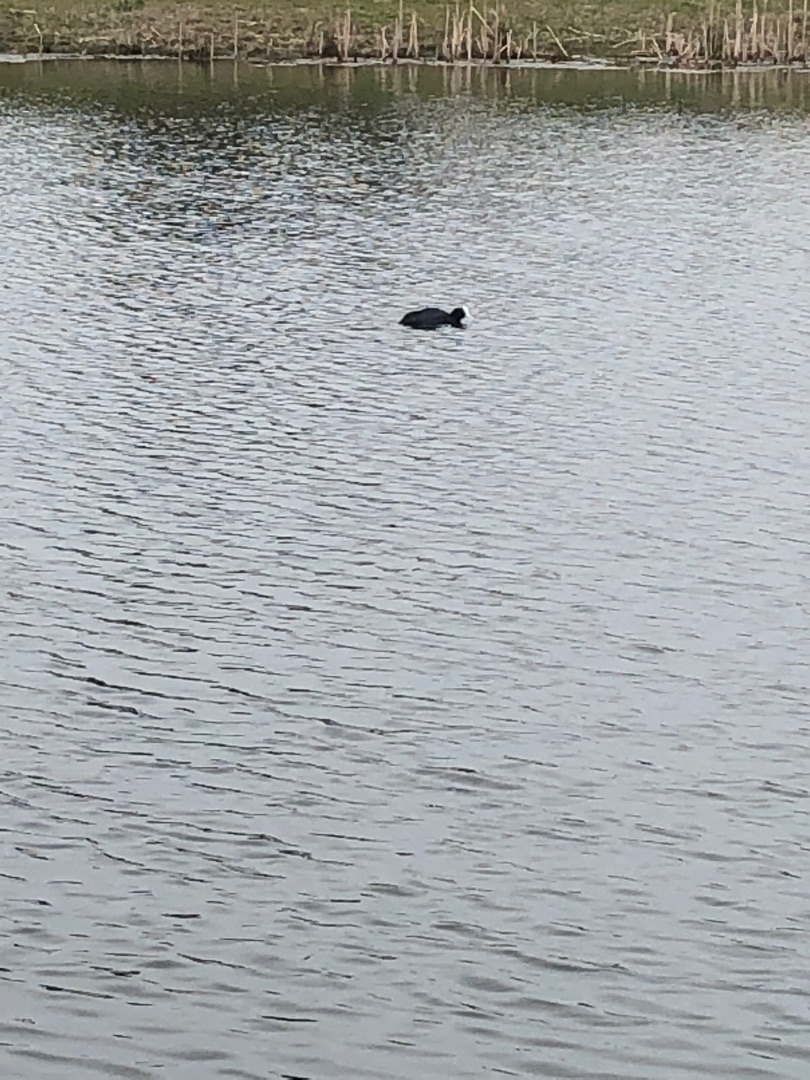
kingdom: Animalia
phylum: Chordata
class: Aves
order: Gruiformes
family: Rallidae
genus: Fulica
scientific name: Fulica atra
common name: Blishøne
